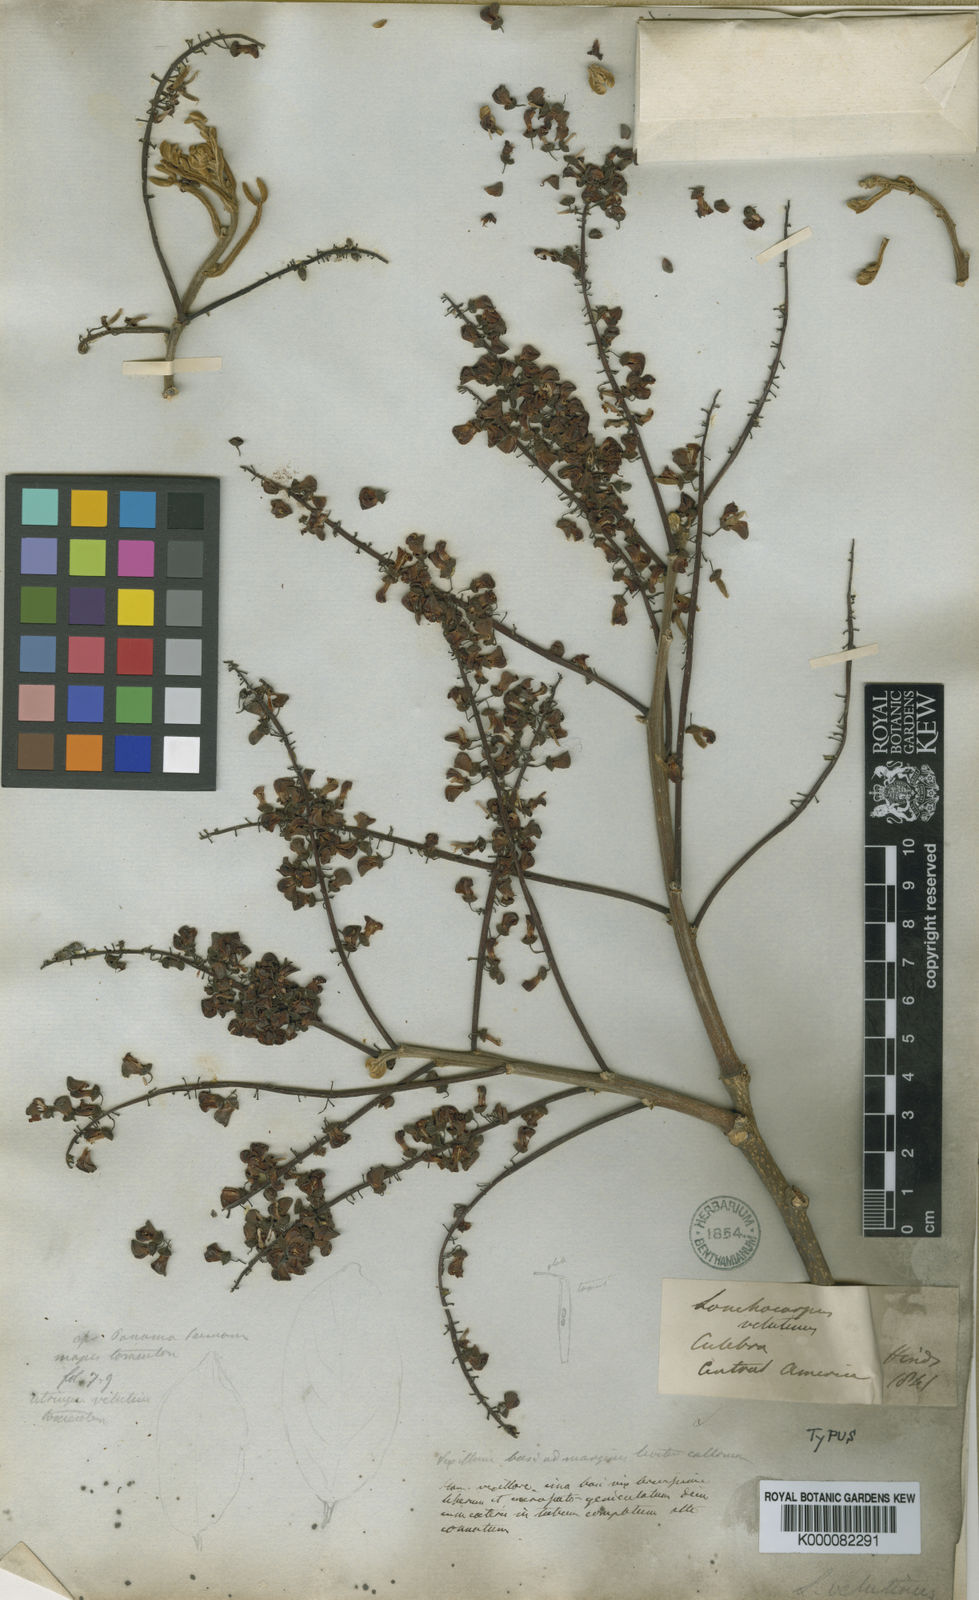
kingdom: Plantae
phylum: Tracheophyta
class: Magnoliopsida
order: Fabales
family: Fabaceae
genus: Lonchocarpus
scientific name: Lonchocarpus
